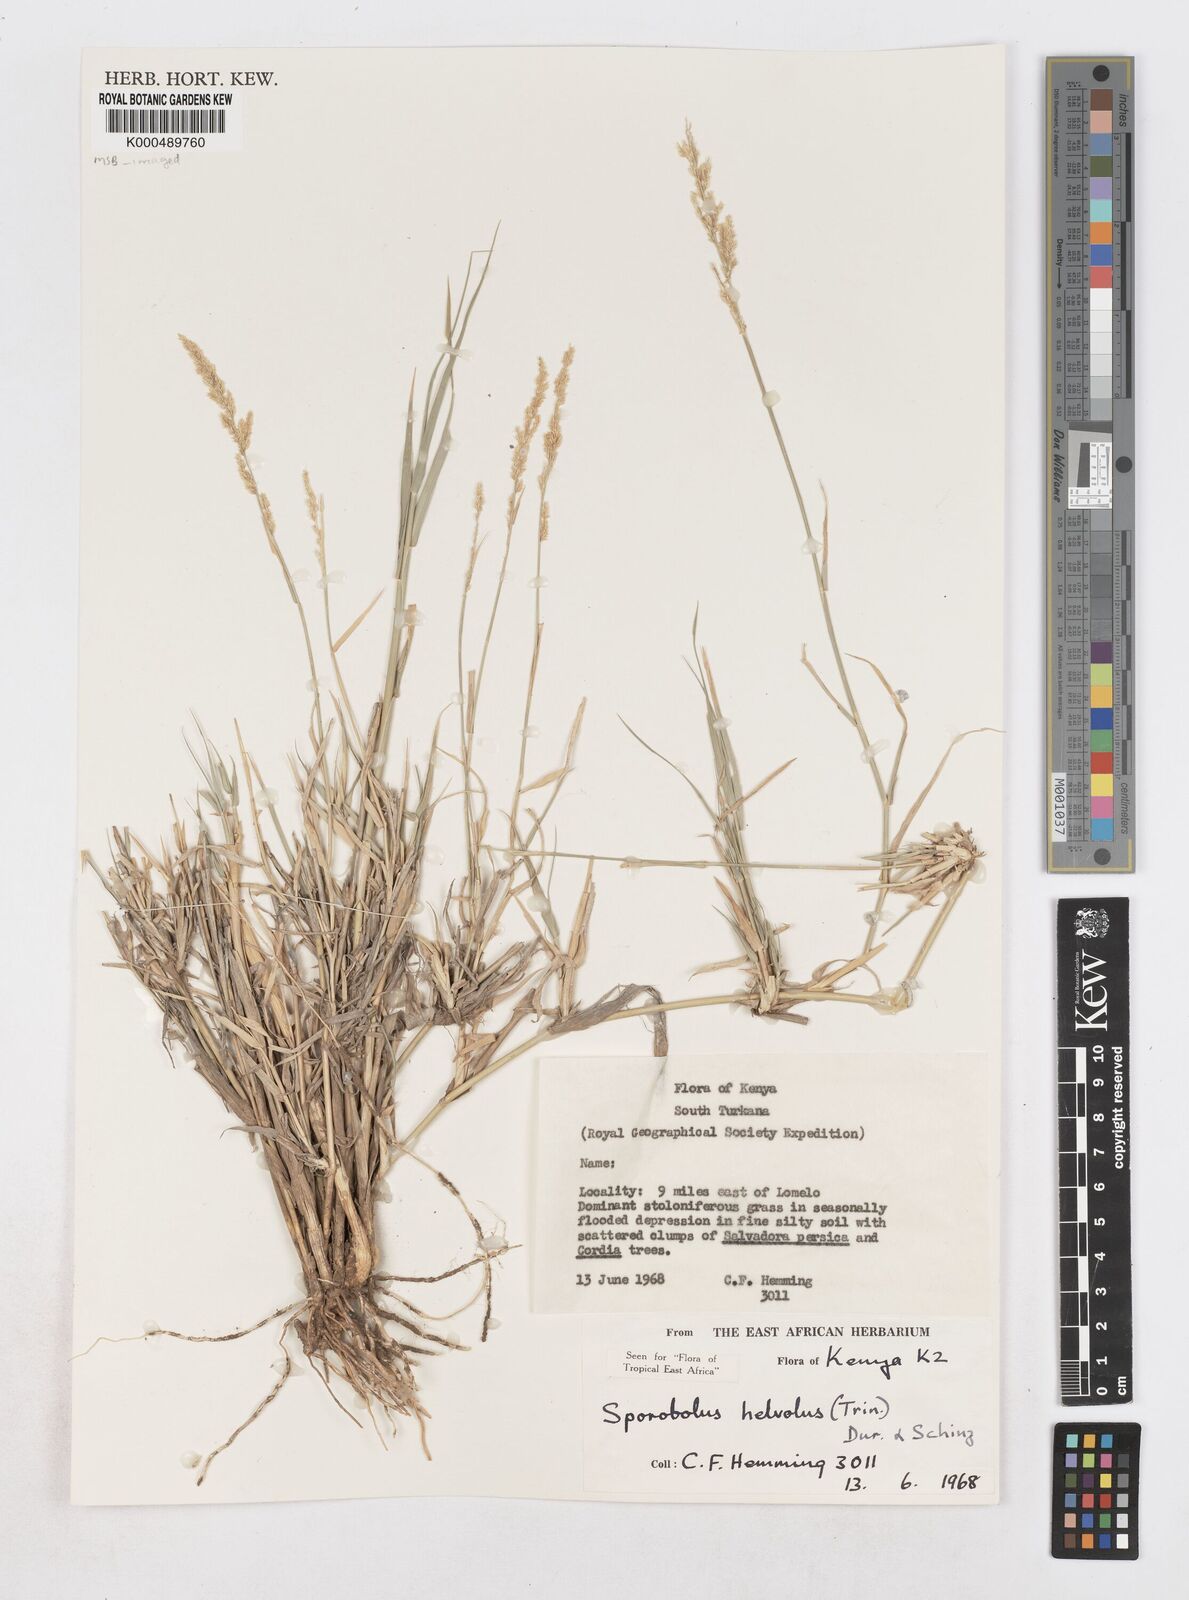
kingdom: Plantae
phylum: Tracheophyta
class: Liliopsida
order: Poales
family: Poaceae
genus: Sporobolus
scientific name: Sporobolus helvolus
